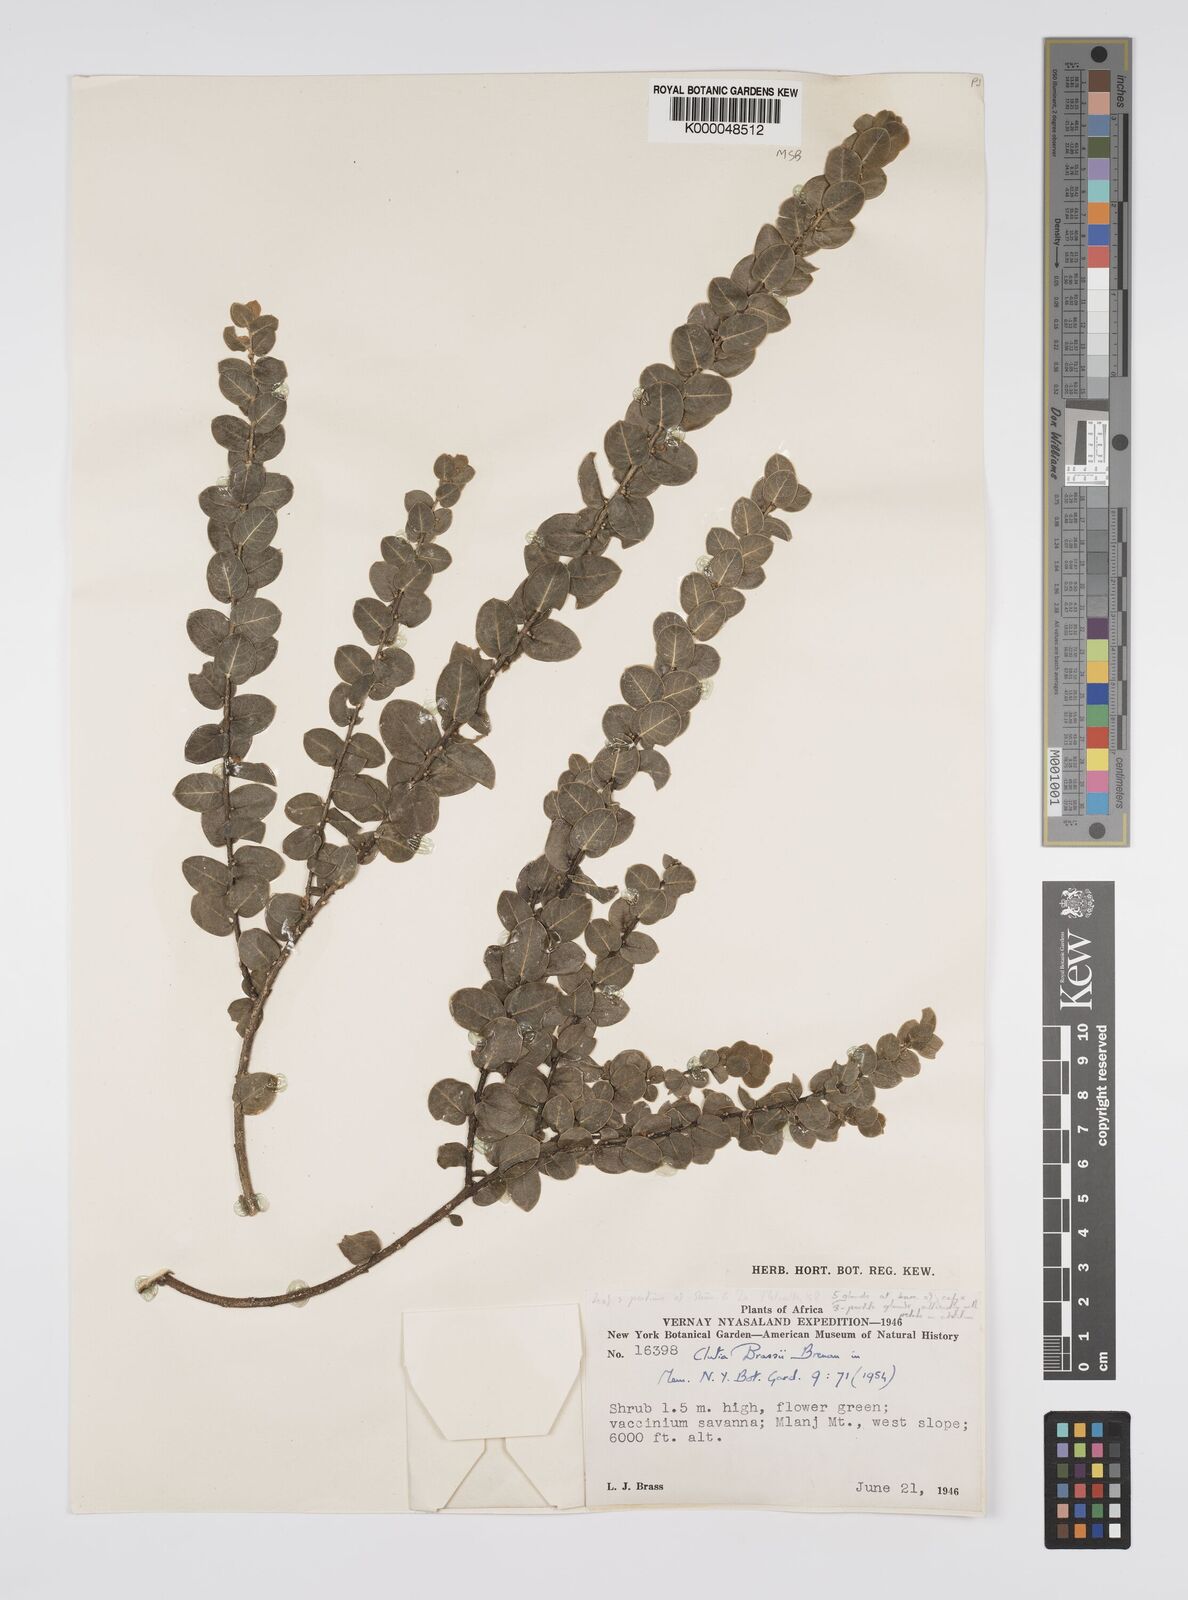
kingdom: Plantae
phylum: Tracheophyta
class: Magnoliopsida
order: Malpighiales
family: Peraceae
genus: Clutia
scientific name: Clutia brassii
